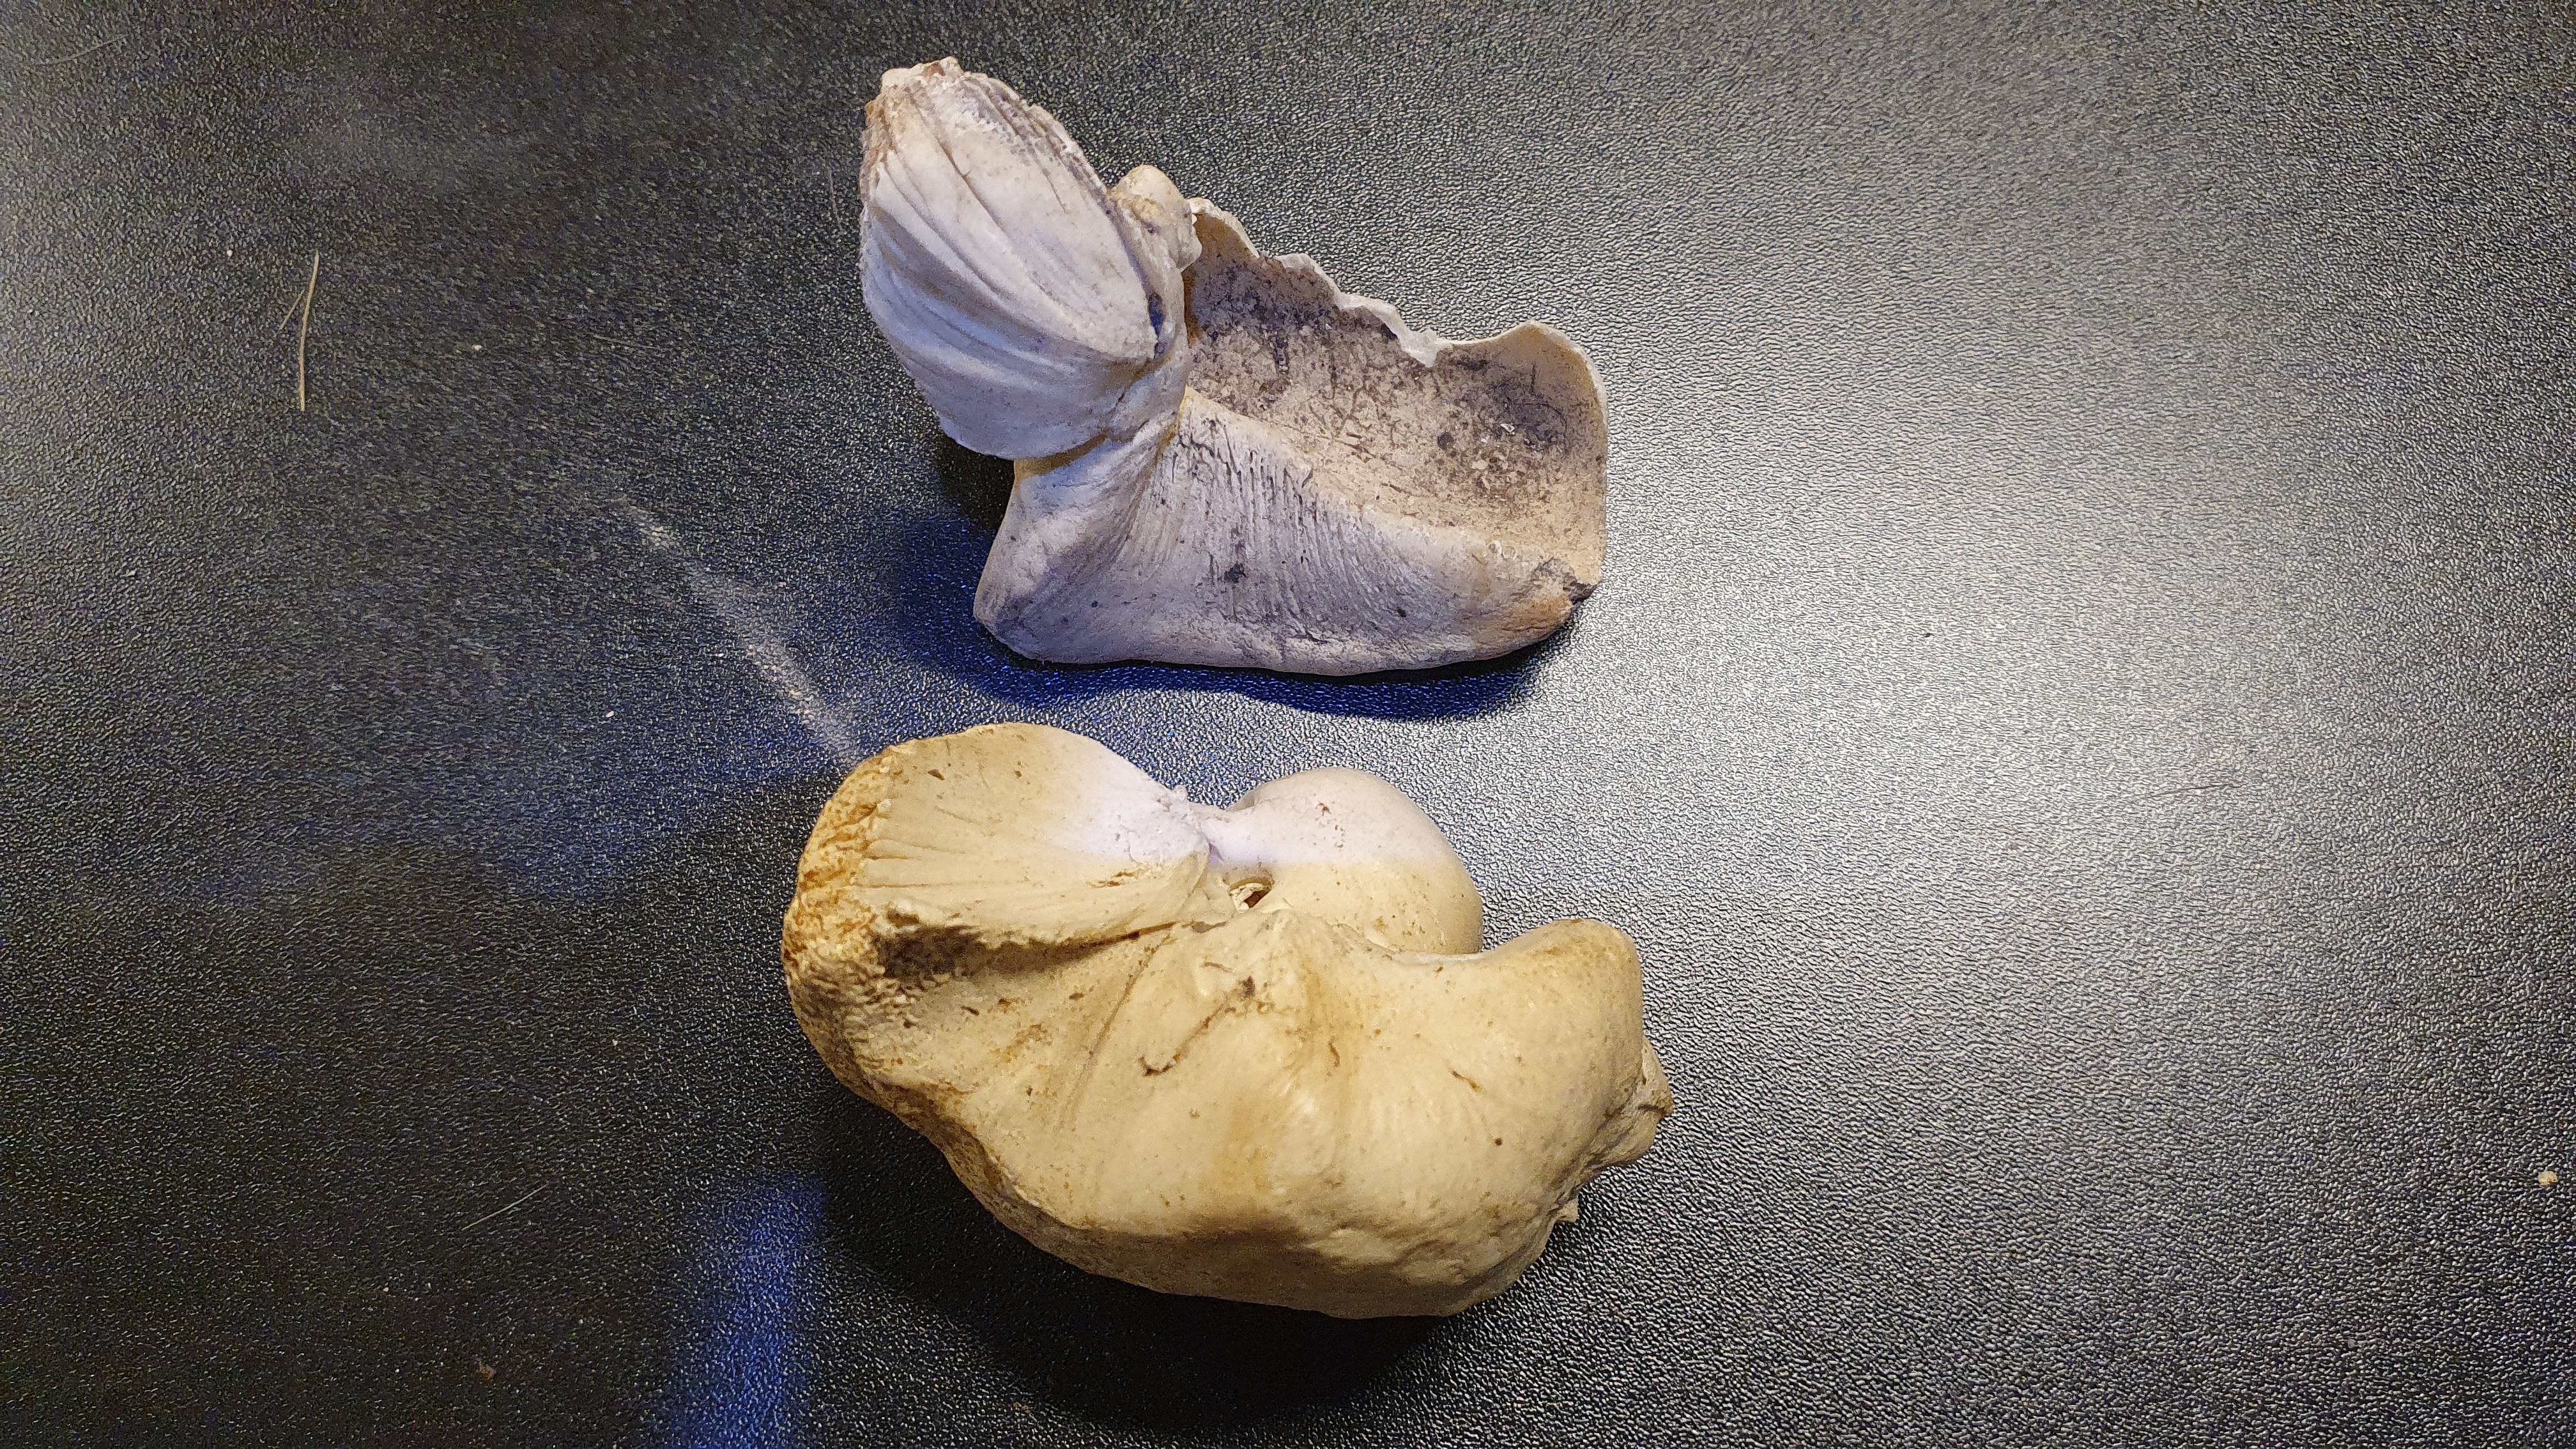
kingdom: Animalia
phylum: Chordata
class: Mammalia
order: Cetacea
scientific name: Cetacea
